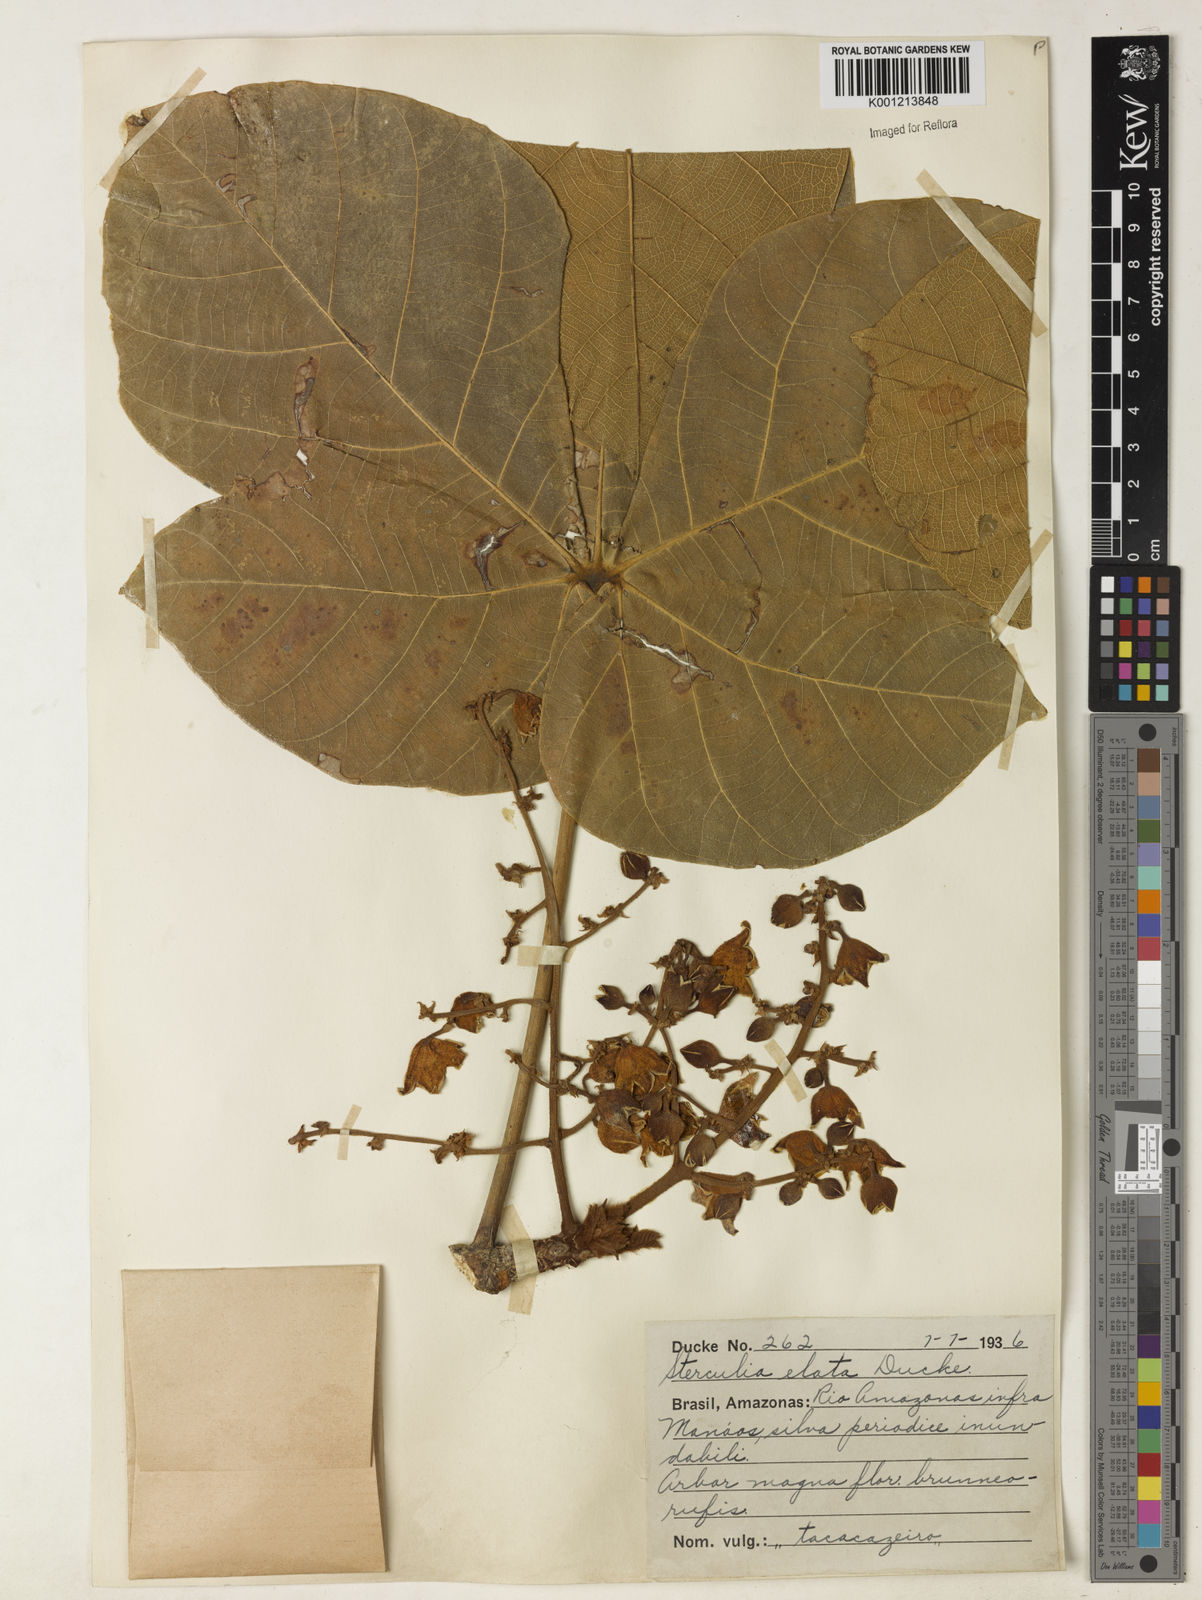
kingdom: Plantae
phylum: Tracheophyta
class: Magnoliopsida
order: Malvales
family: Malvaceae
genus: Sterculia
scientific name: Sterculia apetala
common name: Panama tree
